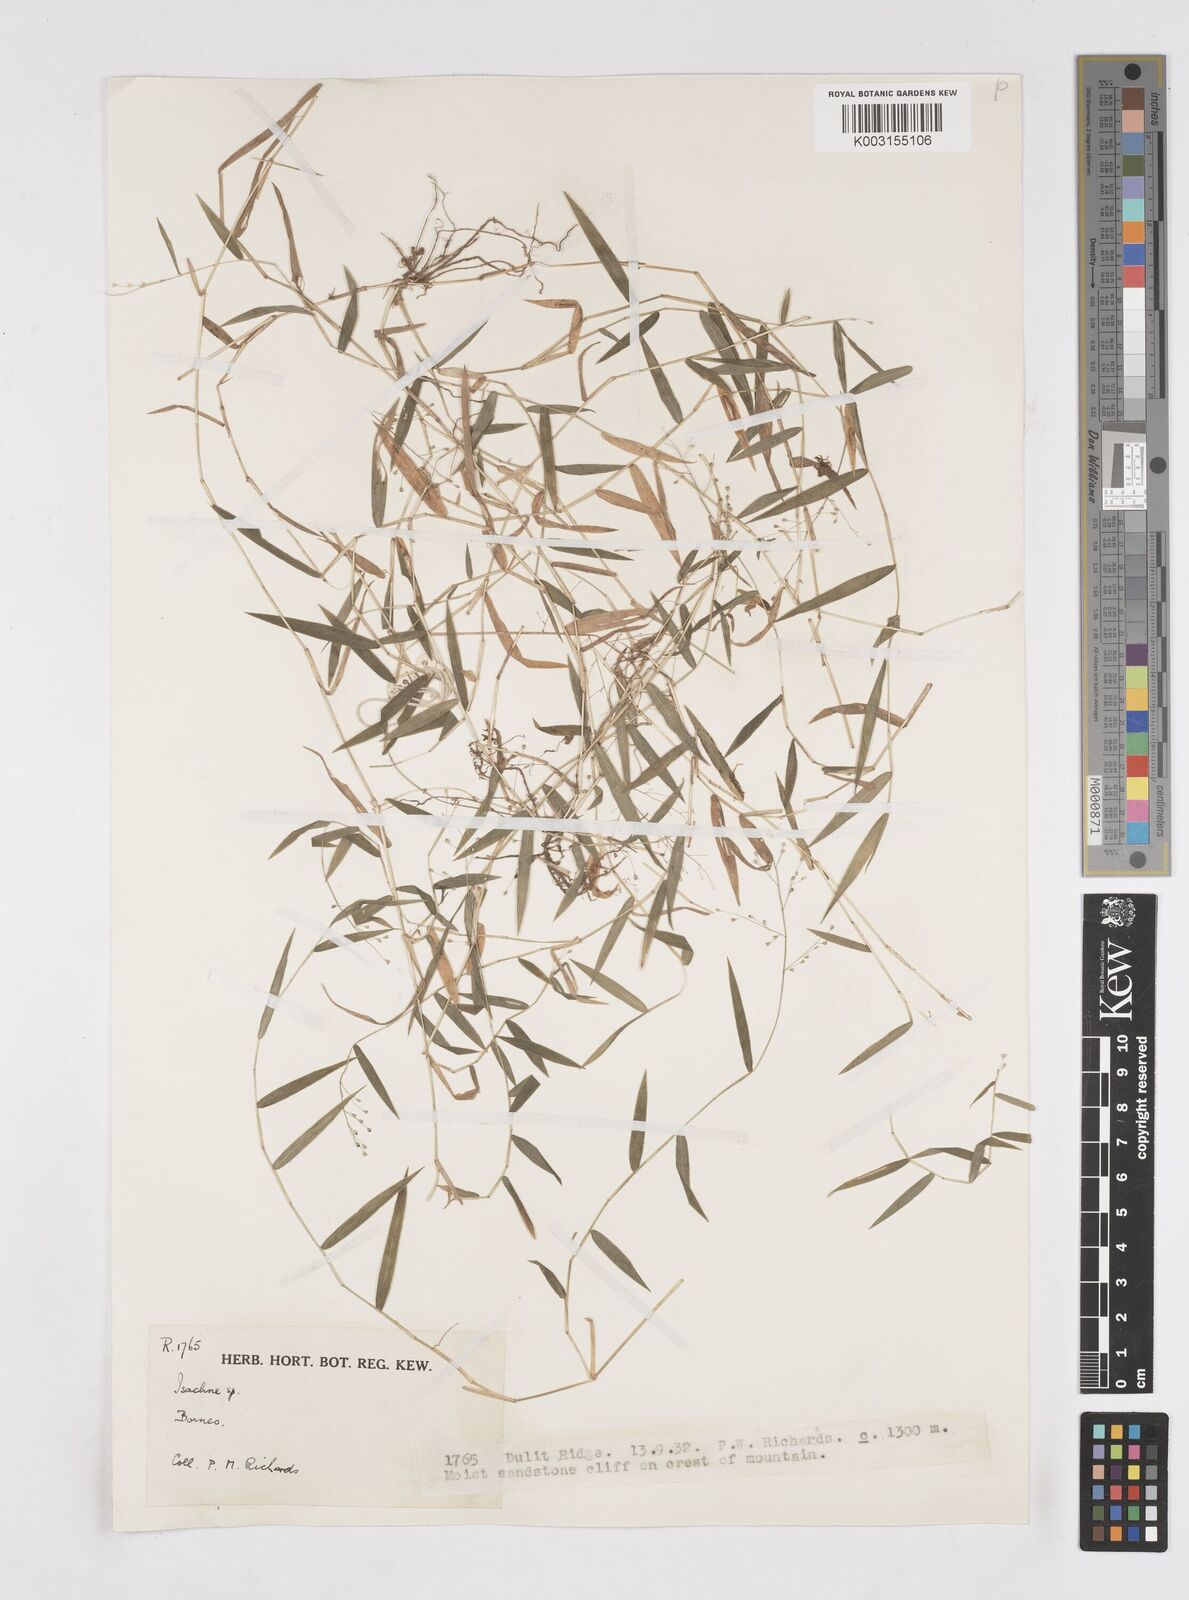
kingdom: Plantae
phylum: Tracheophyta
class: Liliopsida
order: Poales
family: Poaceae
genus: Isachne
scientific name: Isachne
